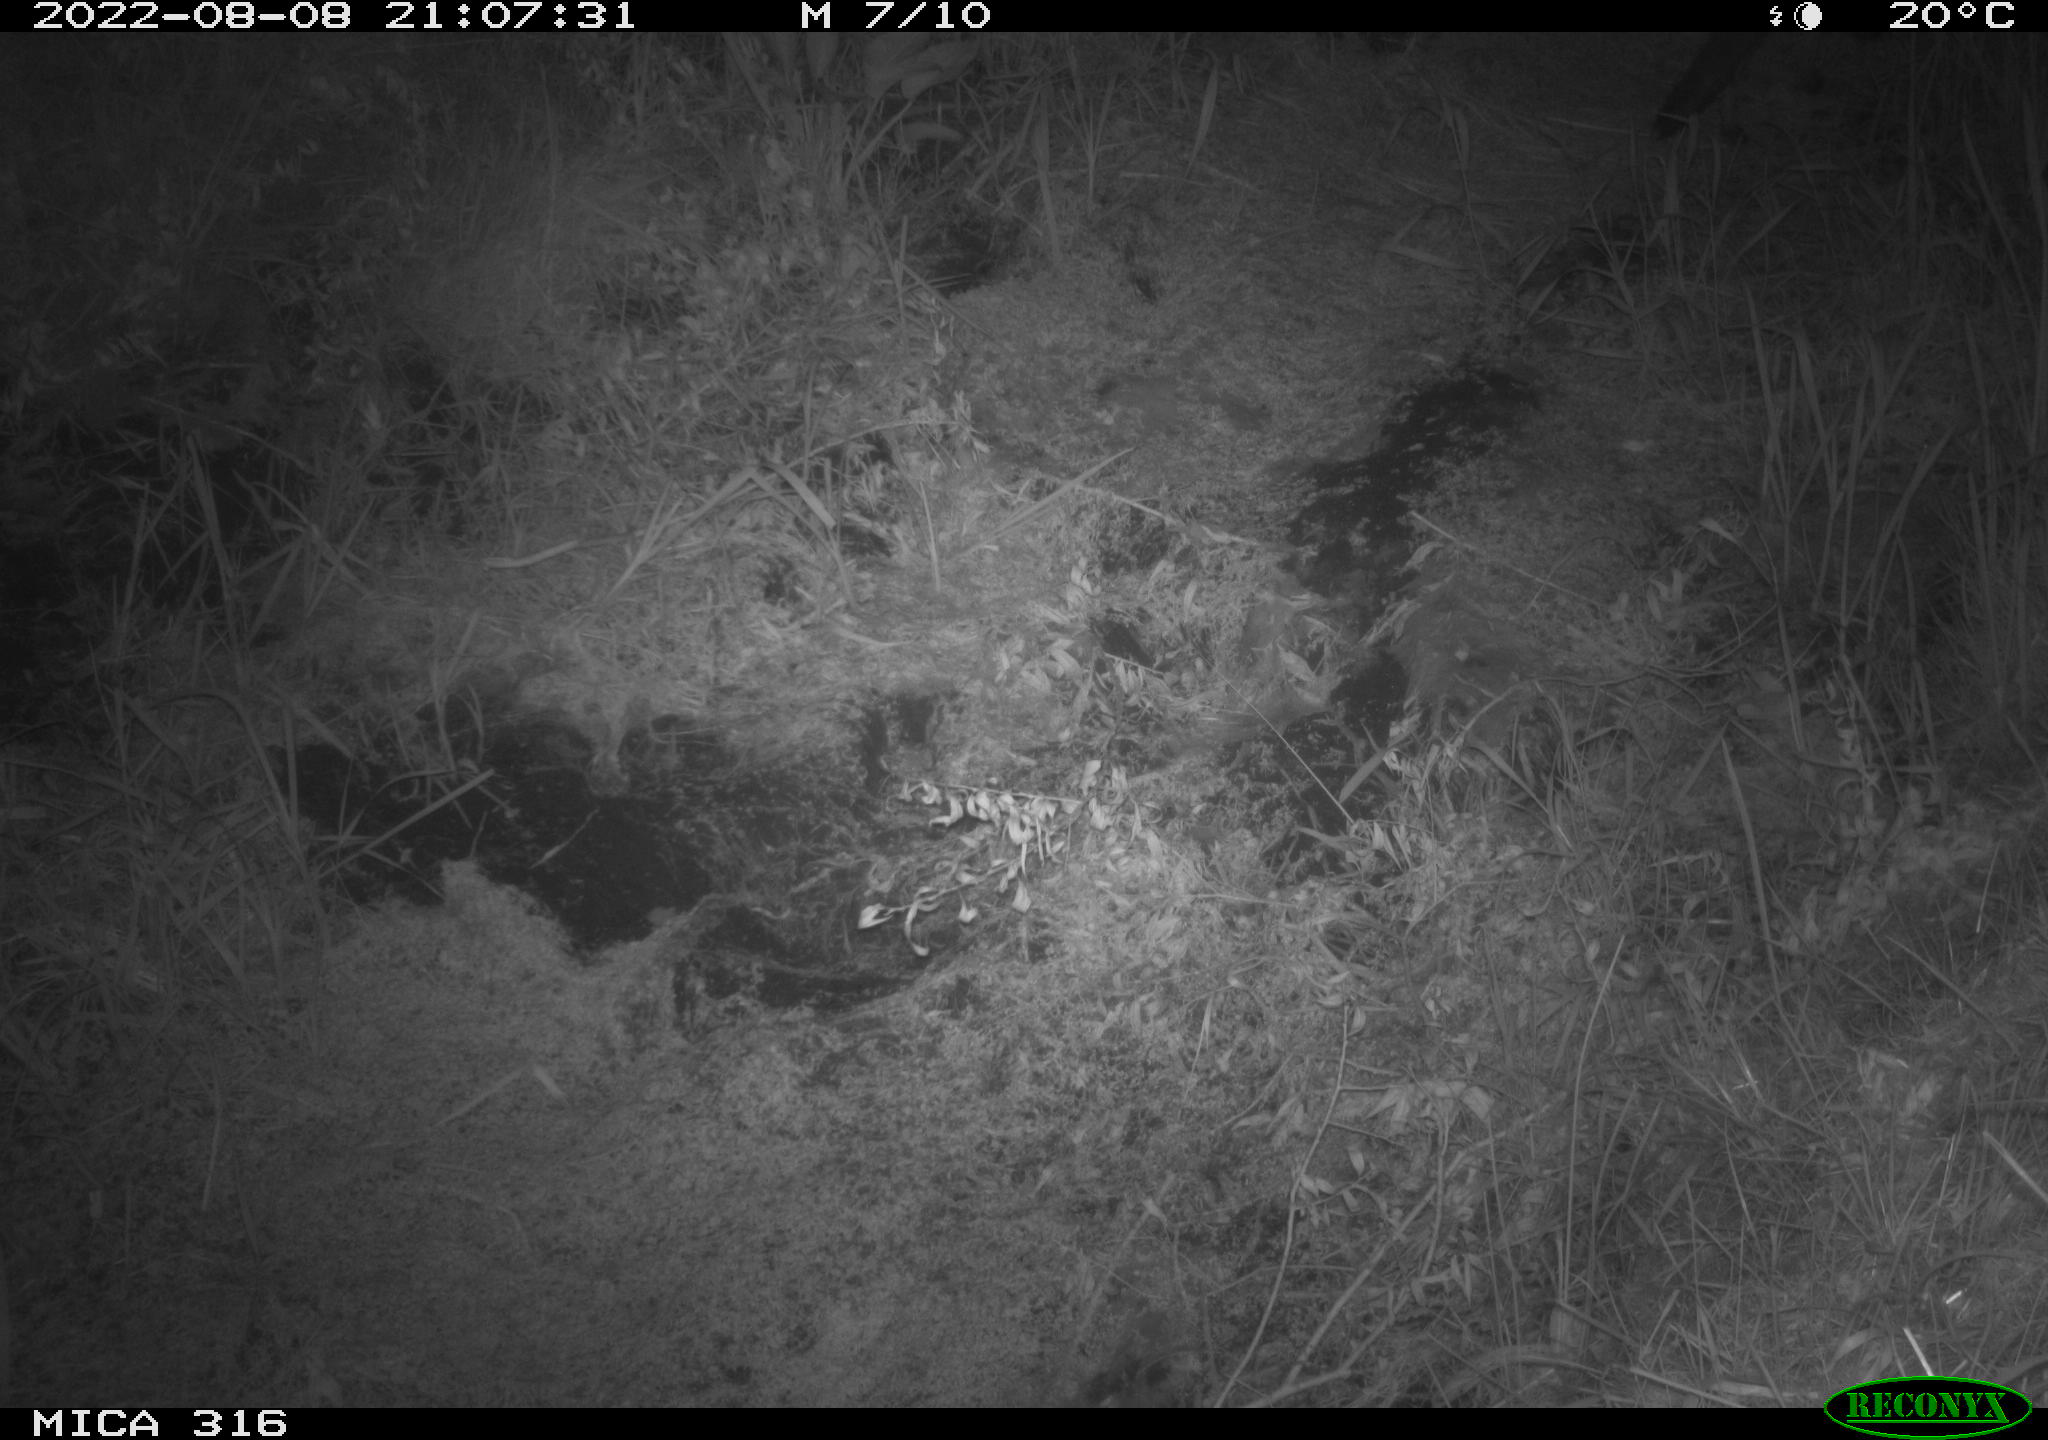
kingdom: Animalia
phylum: Chordata
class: Mammalia
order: Carnivora
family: Canidae
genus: Vulpes
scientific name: Vulpes vulpes
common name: Red fox
